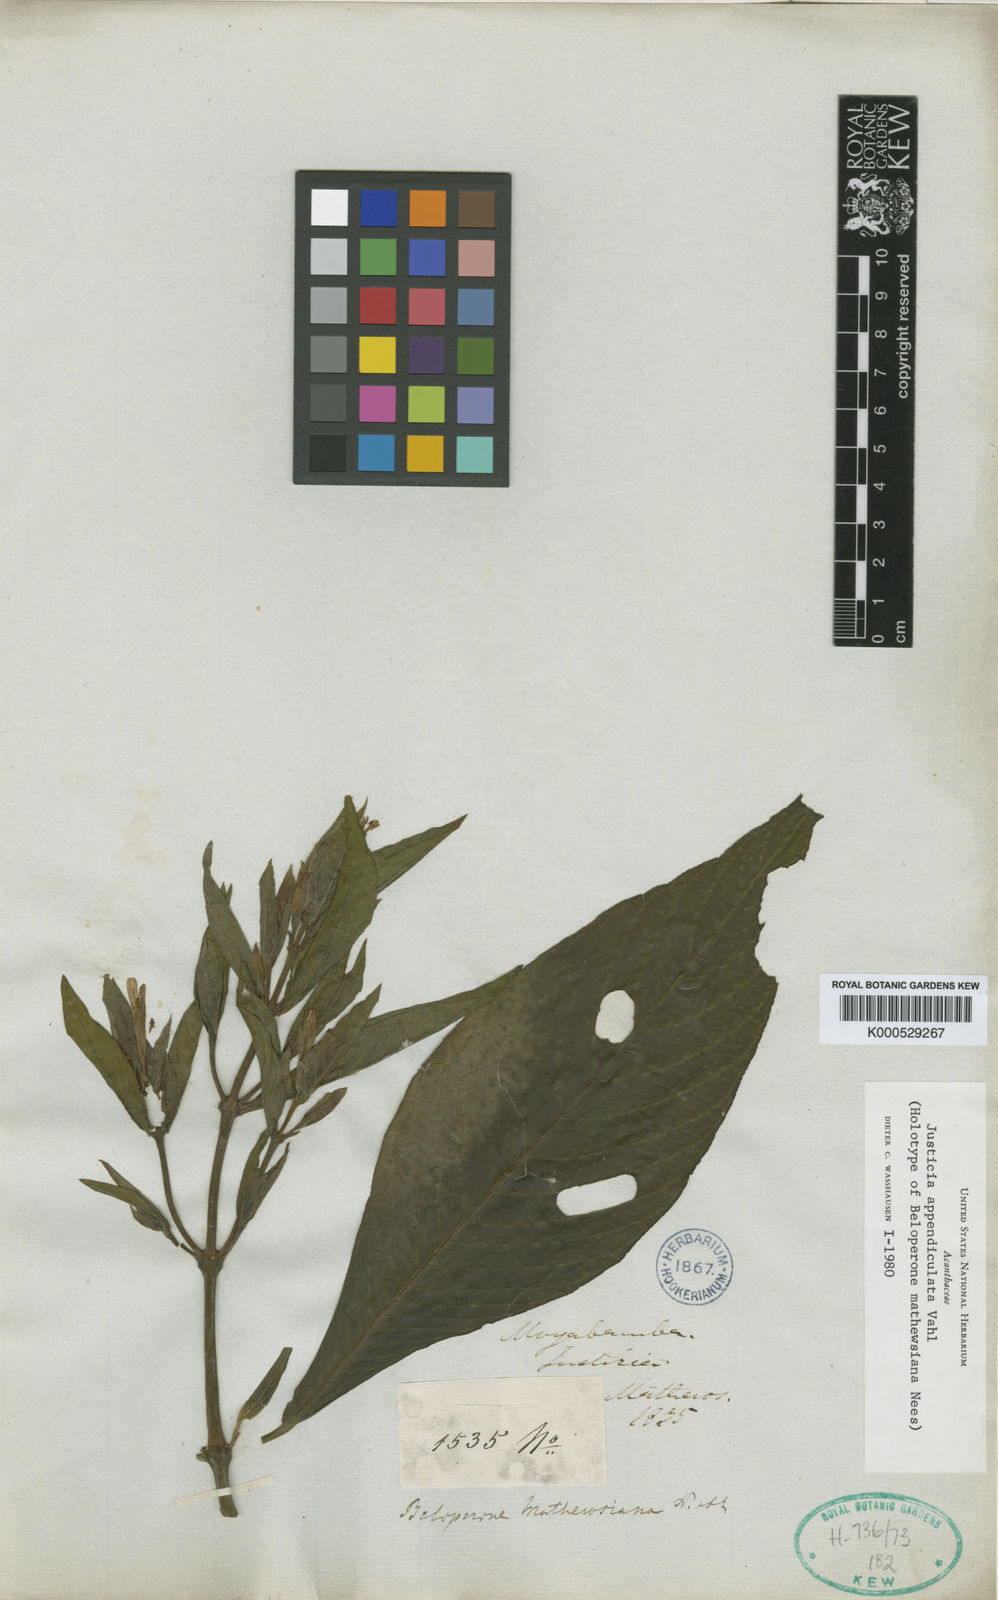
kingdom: Plantae
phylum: Tracheophyta
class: Magnoliopsida
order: Lamiales
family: Acanthaceae
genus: Dianthera
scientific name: Dianthera appendiculata
